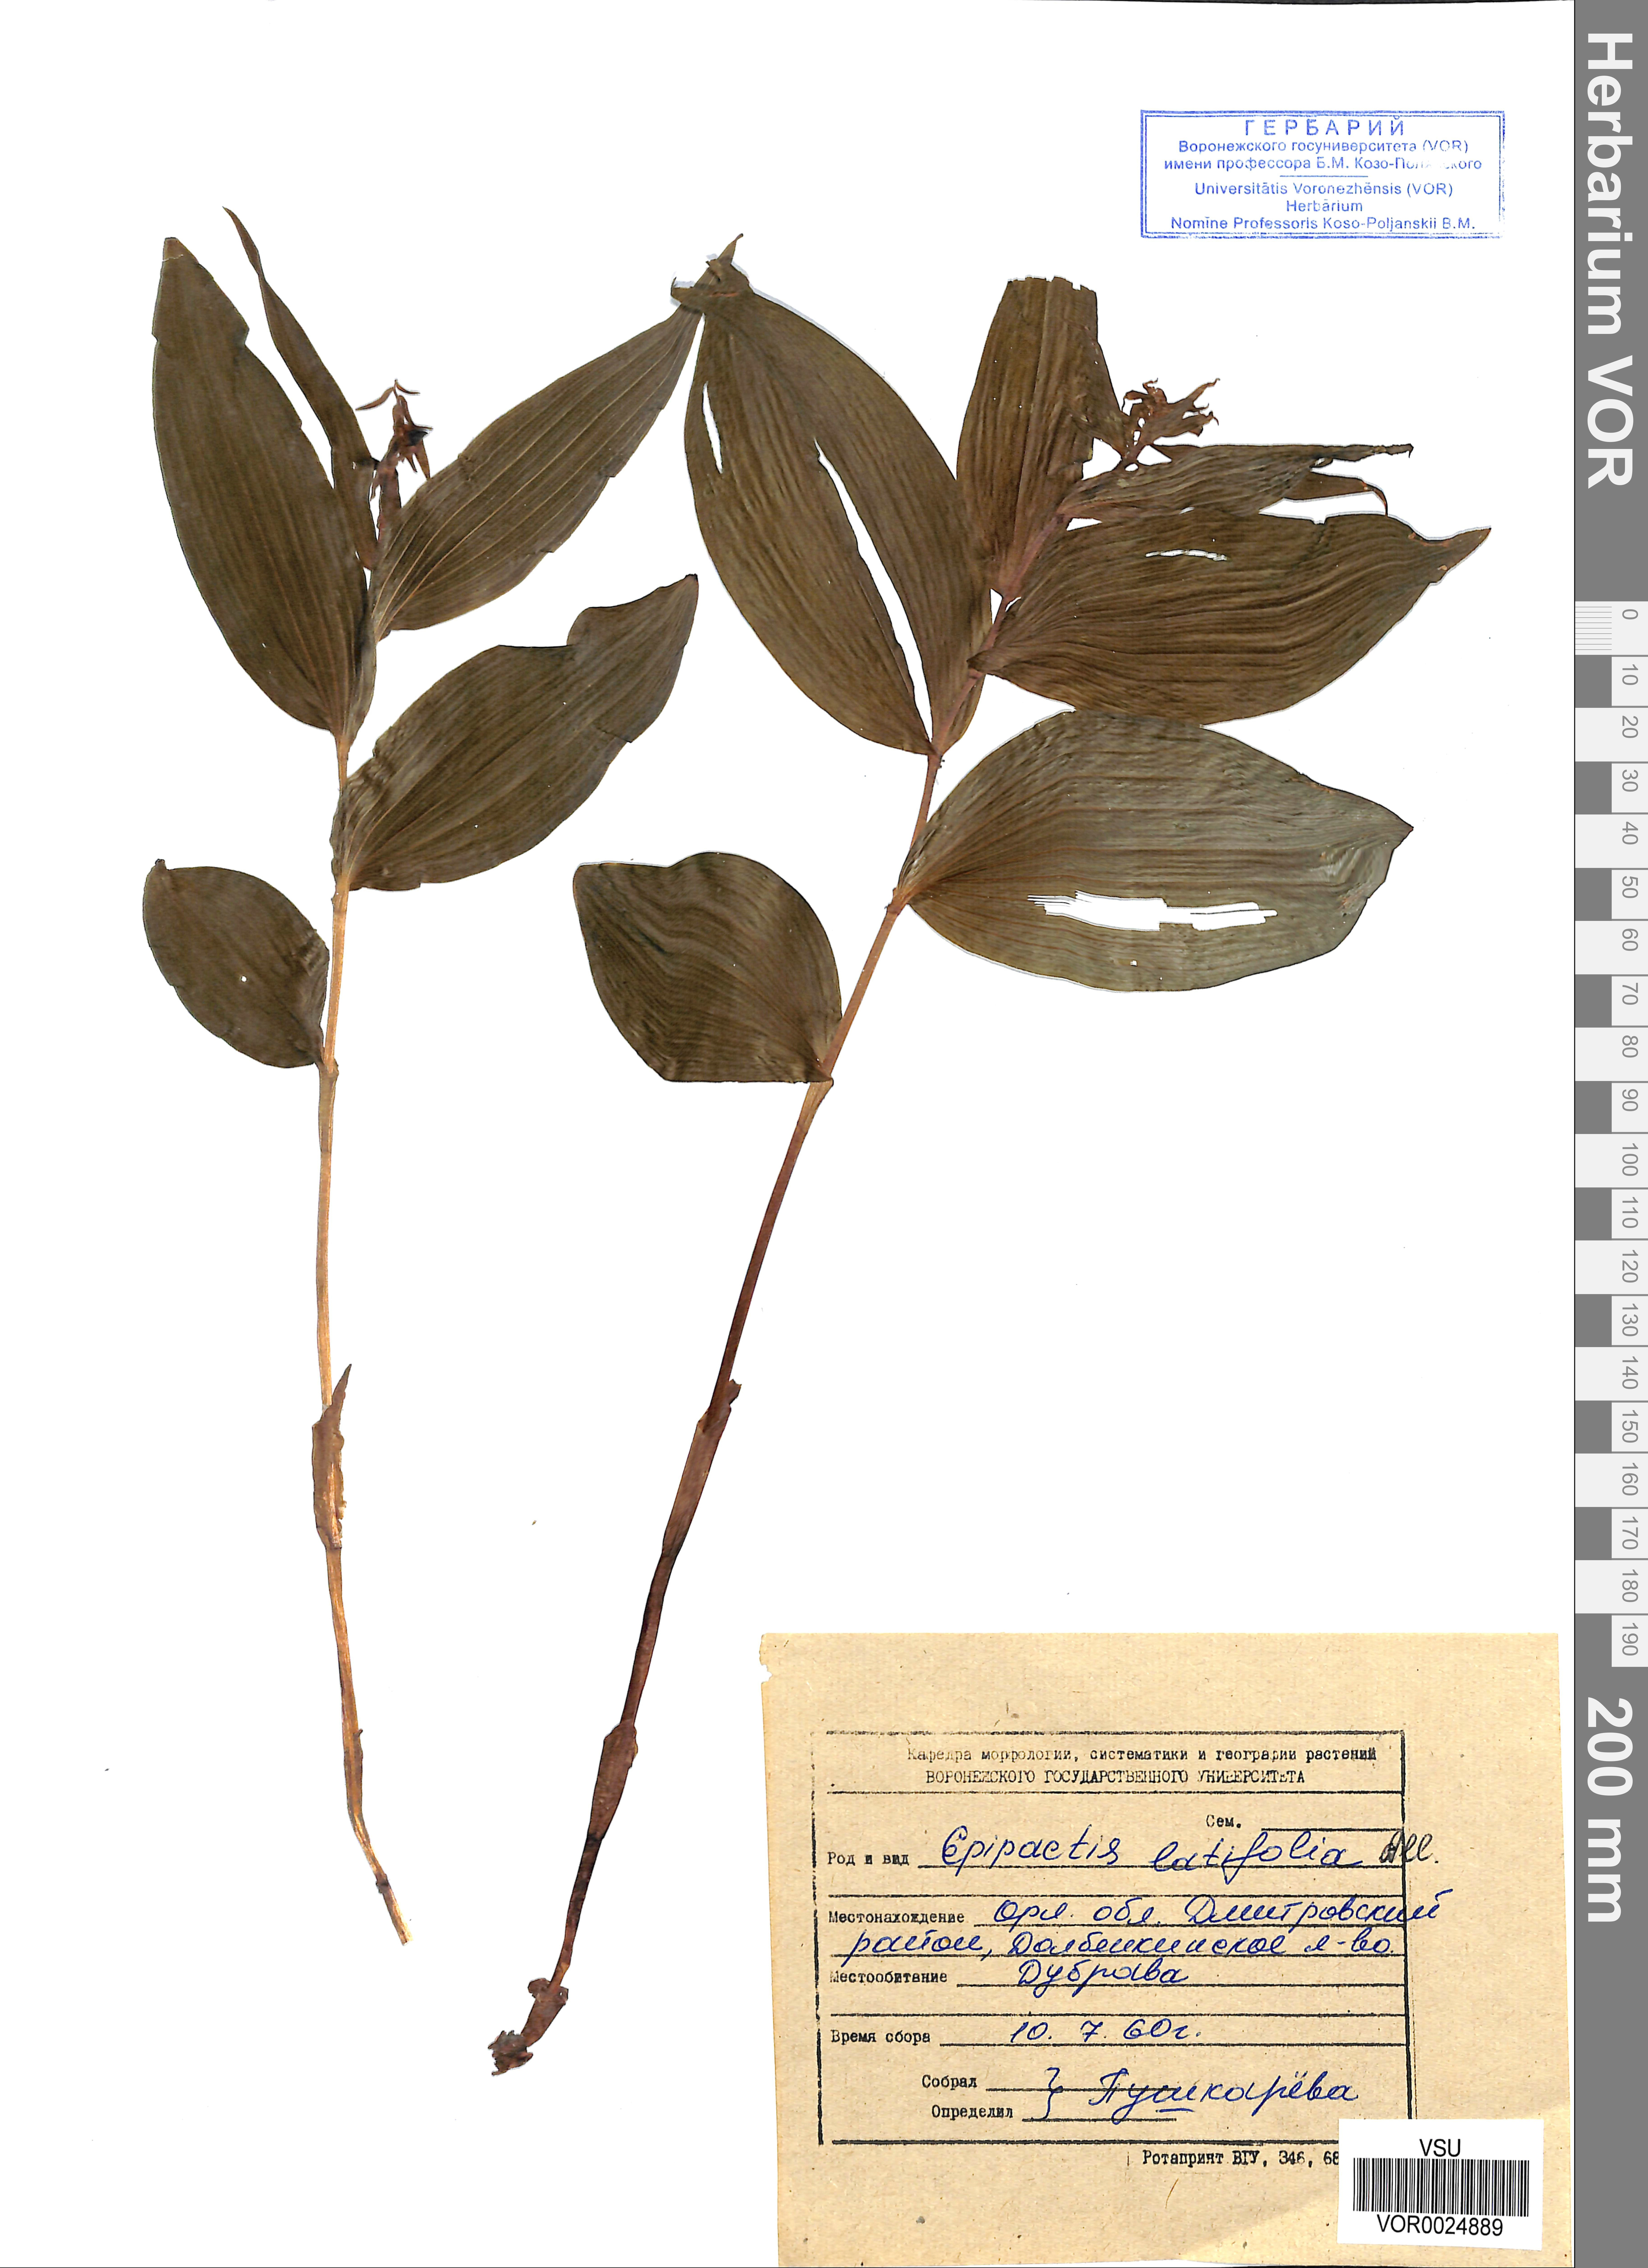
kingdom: Plantae
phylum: Tracheophyta
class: Liliopsida
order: Asparagales
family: Orchidaceae
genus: Epipactis
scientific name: Epipactis helleborine
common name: Broad-leaved helleborine
